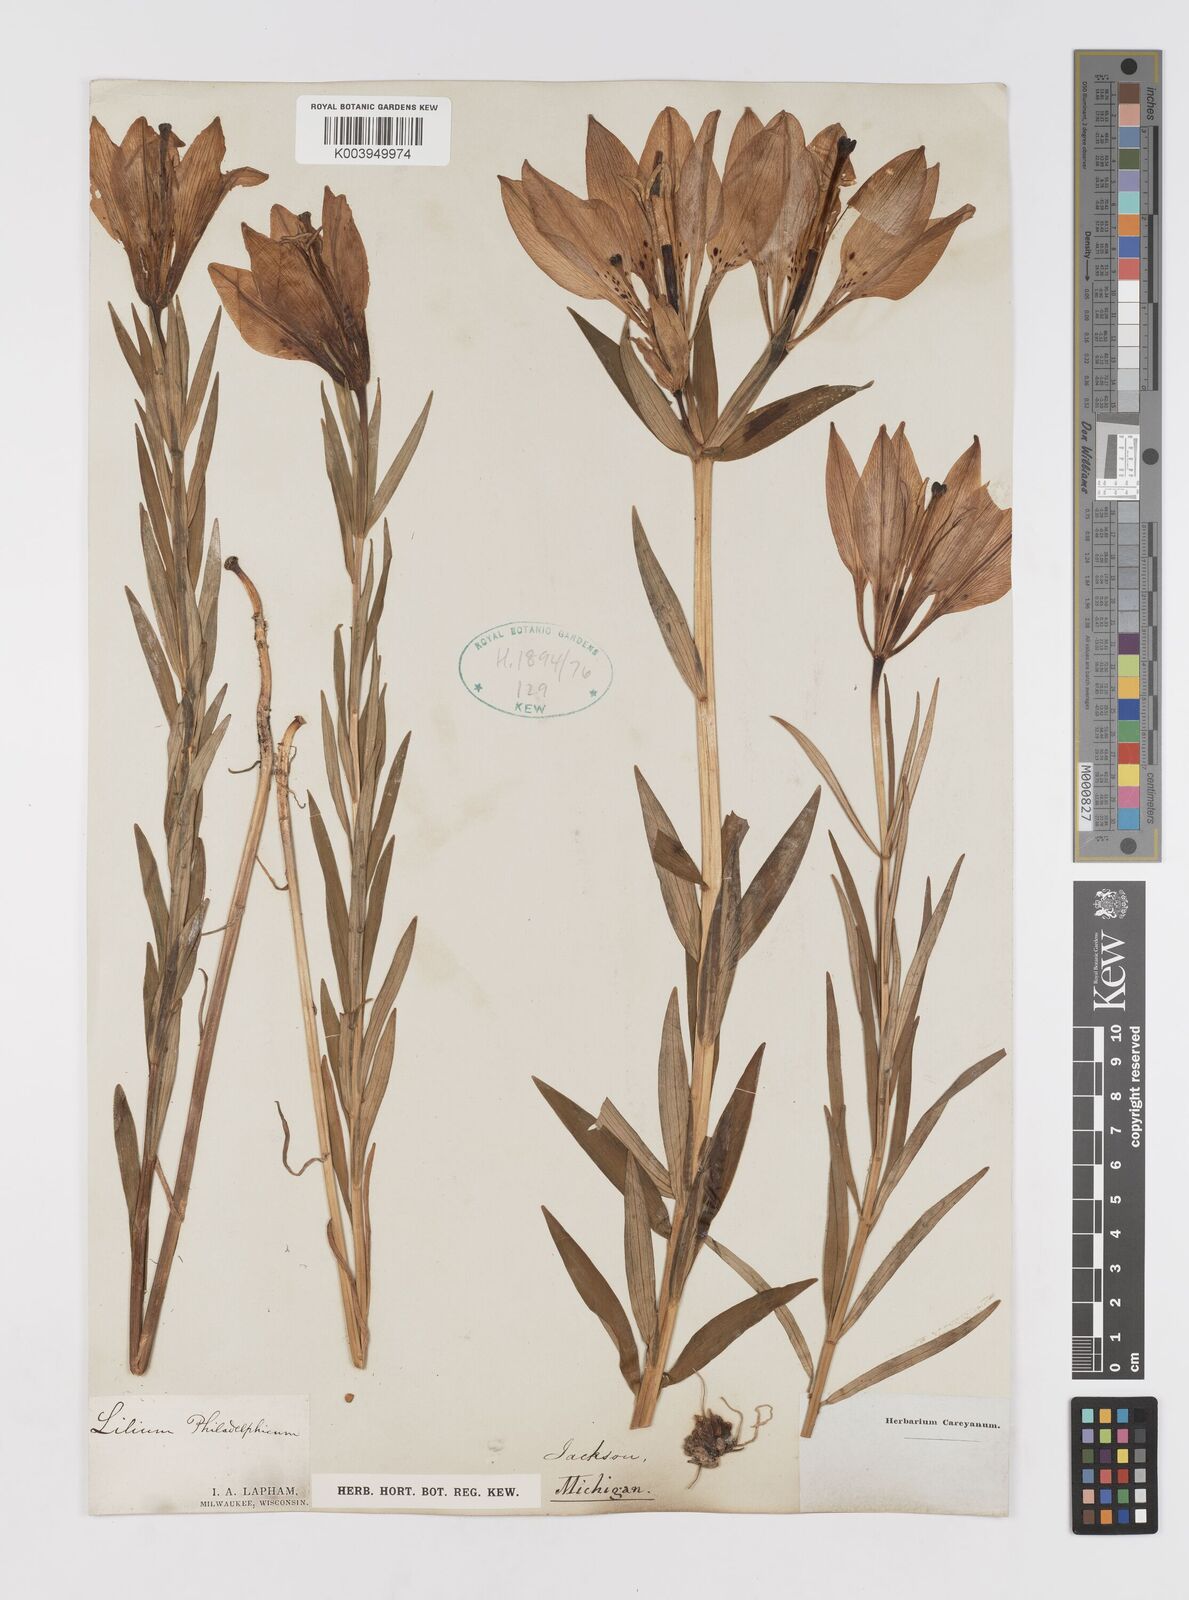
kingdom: Plantae
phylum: Tracheophyta
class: Liliopsida
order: Liliales
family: Liliaceae
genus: Lilium
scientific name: Lilium philadelphicum
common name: Red lily
